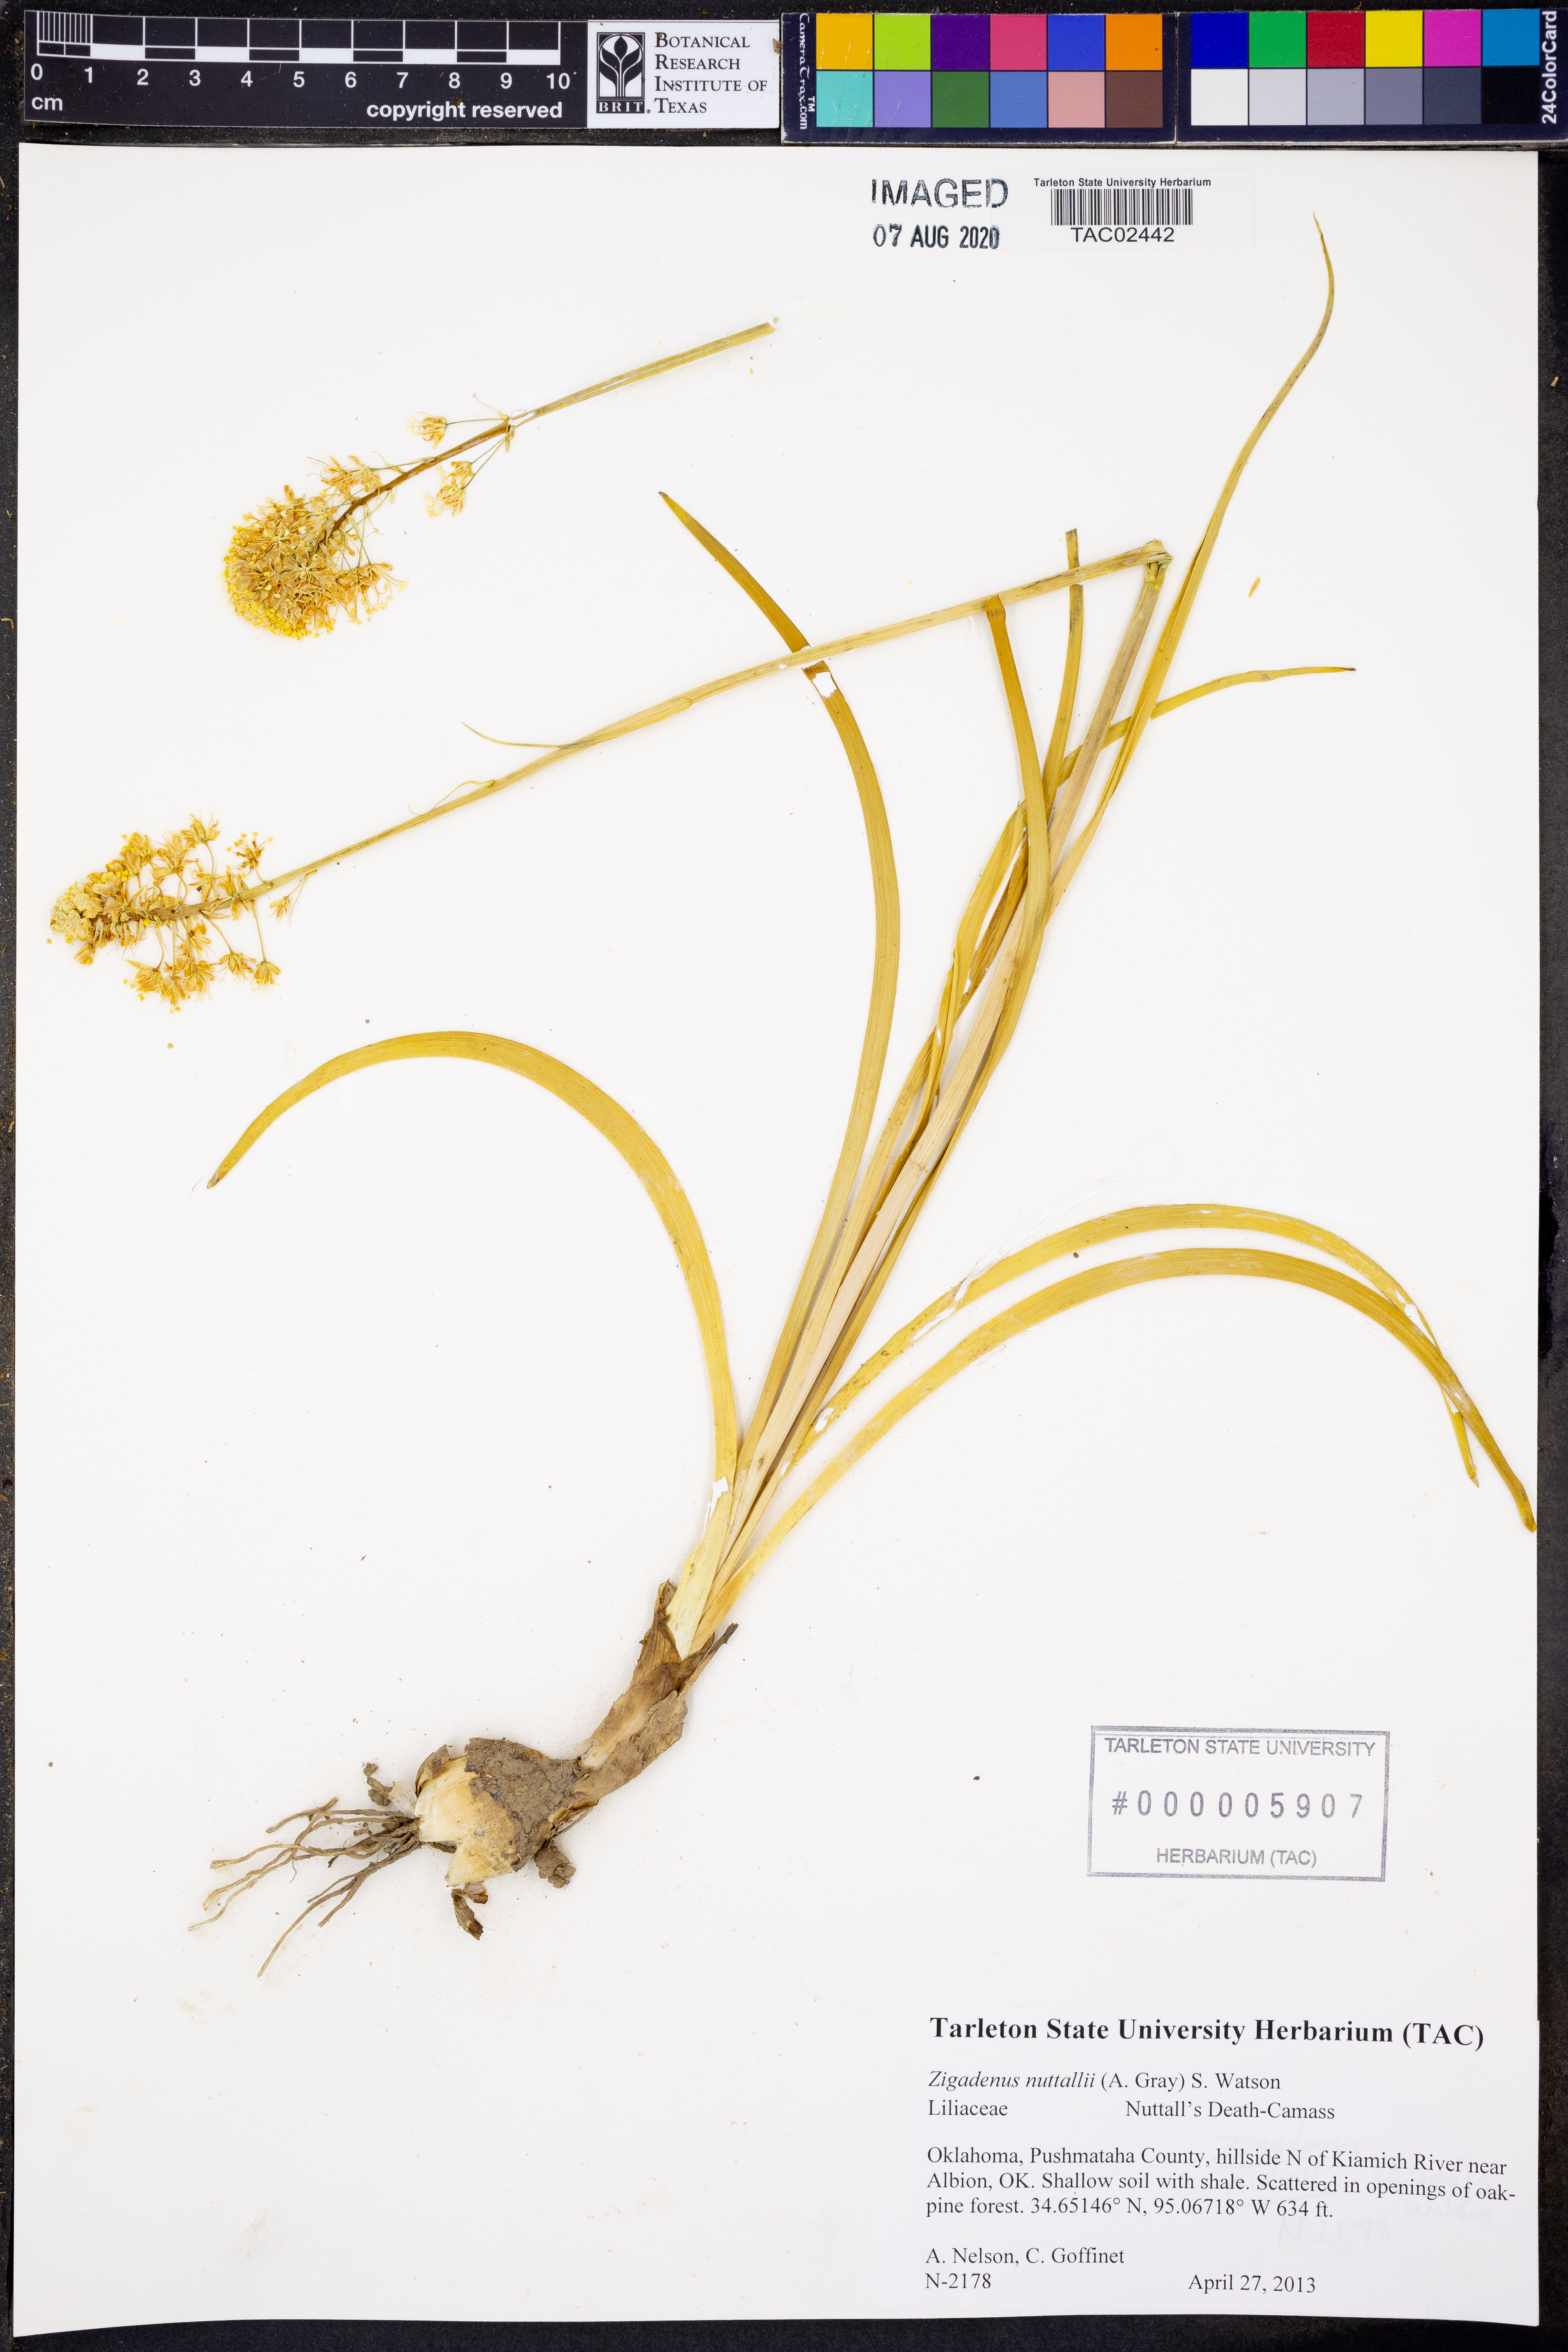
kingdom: Plantae
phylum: Tracheophyta
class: Liliopsida
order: Liliales
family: Melanthiaceae
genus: Toxicoscordion
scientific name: Toxicoscordion nuttallii
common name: Poison sego
